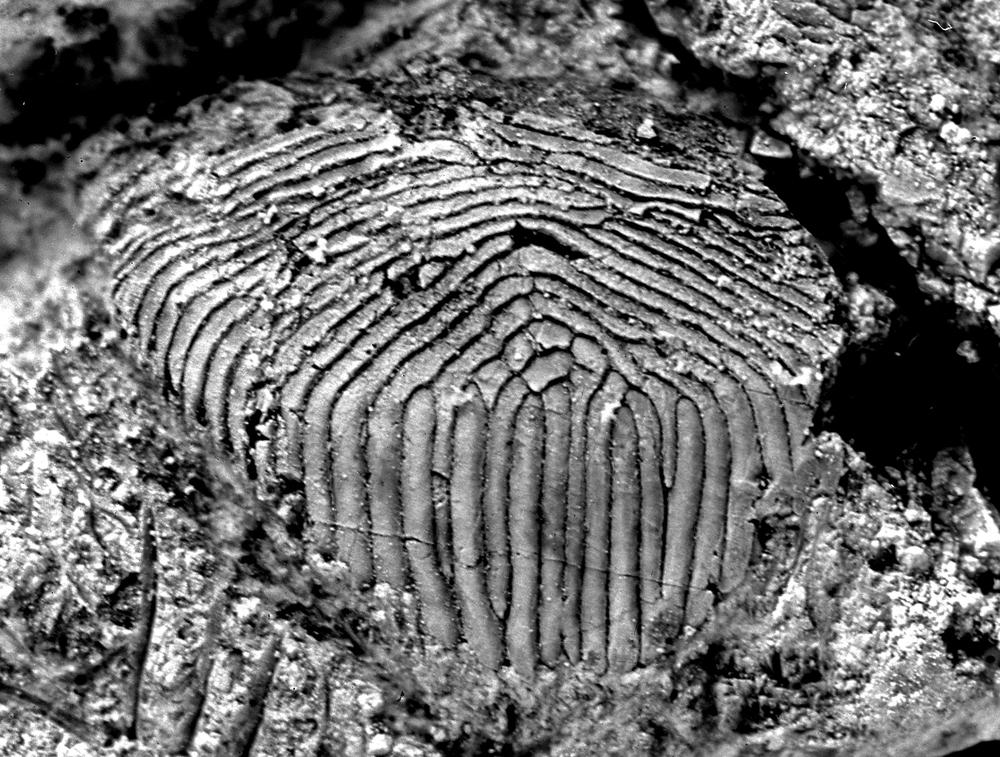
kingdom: Animalia
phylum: Chordata
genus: Archegonaspis
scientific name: Archegonaspis
